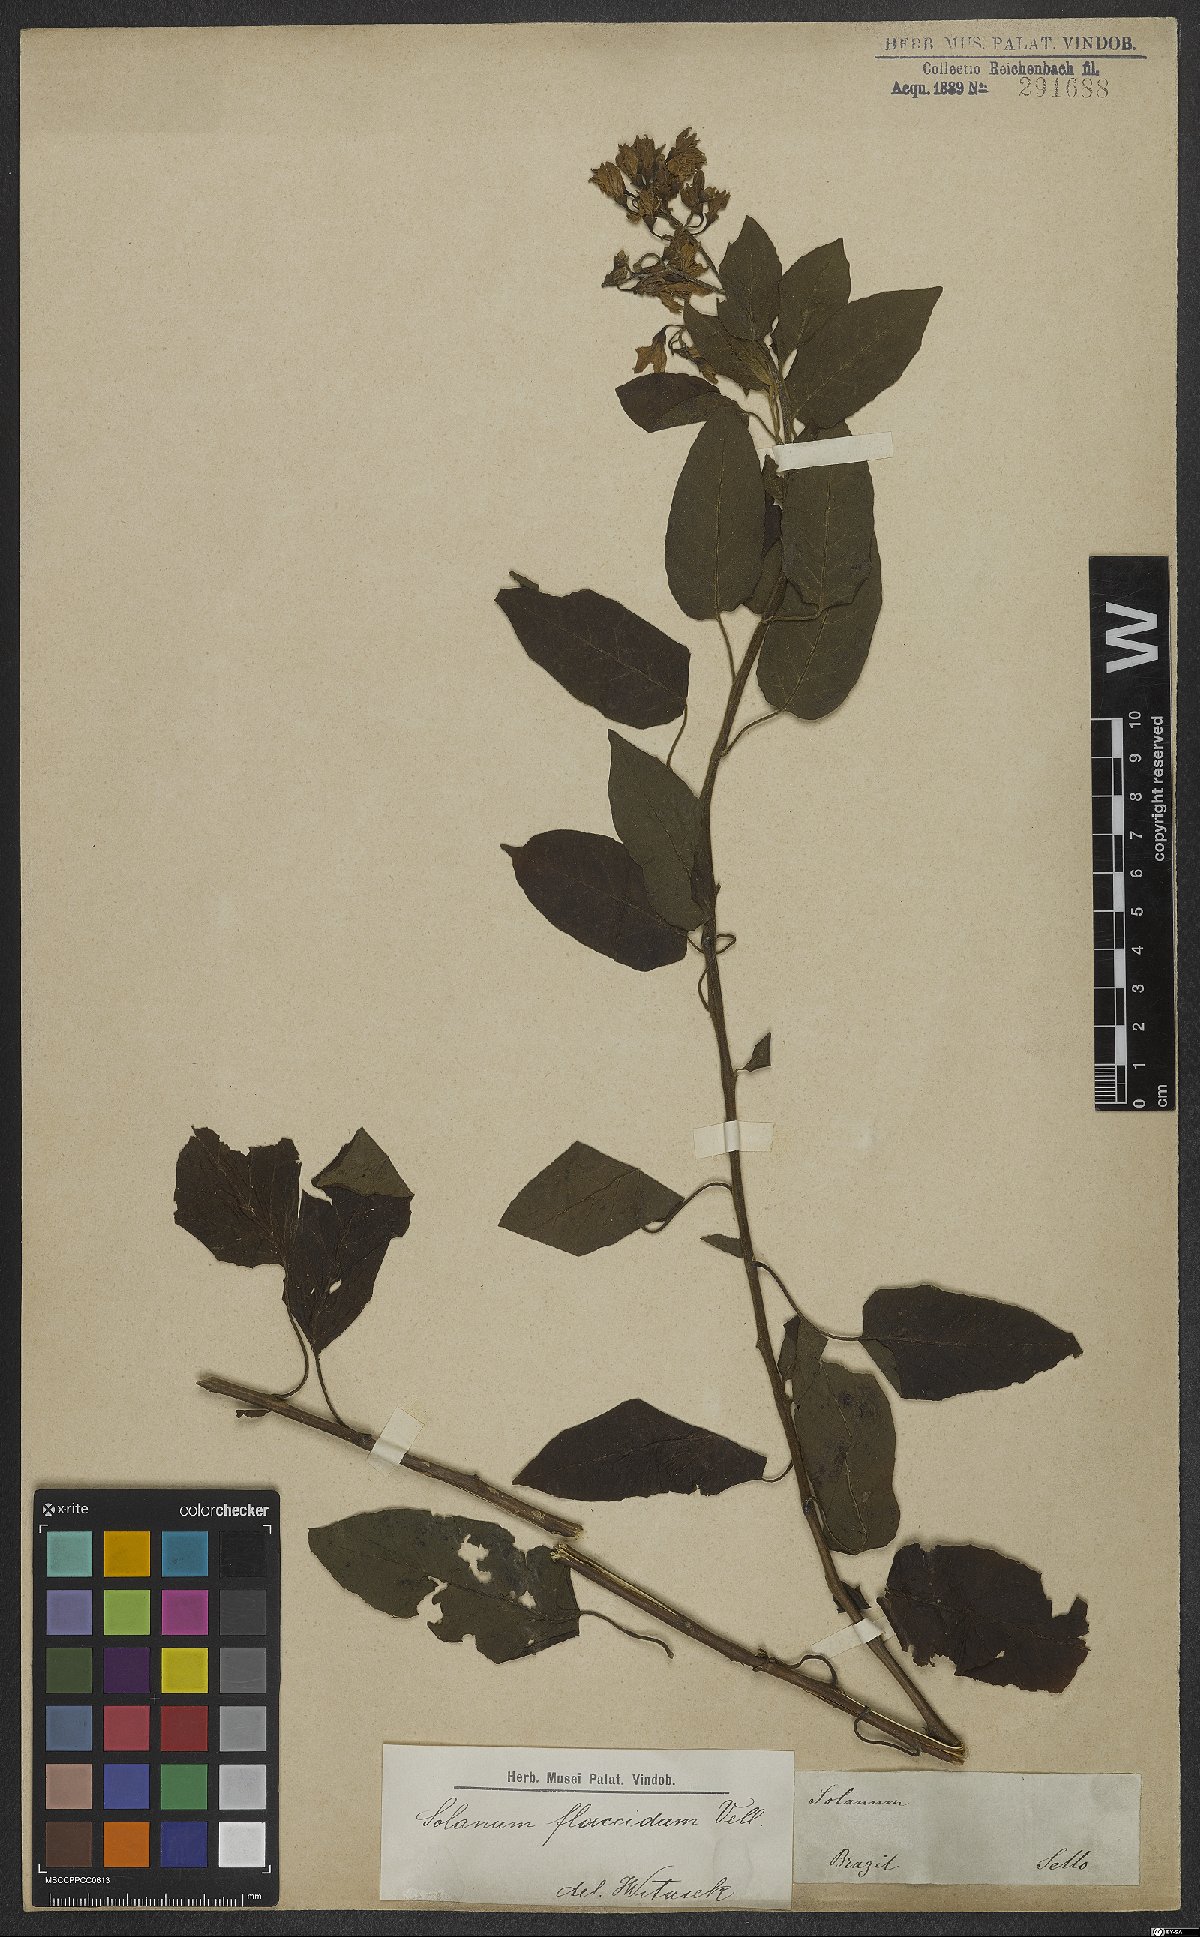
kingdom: Plantae
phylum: Tracheophyta
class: Magnoliopsida
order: Solanales
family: Solanaceae
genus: Solanum
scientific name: Solanum flaccidum
